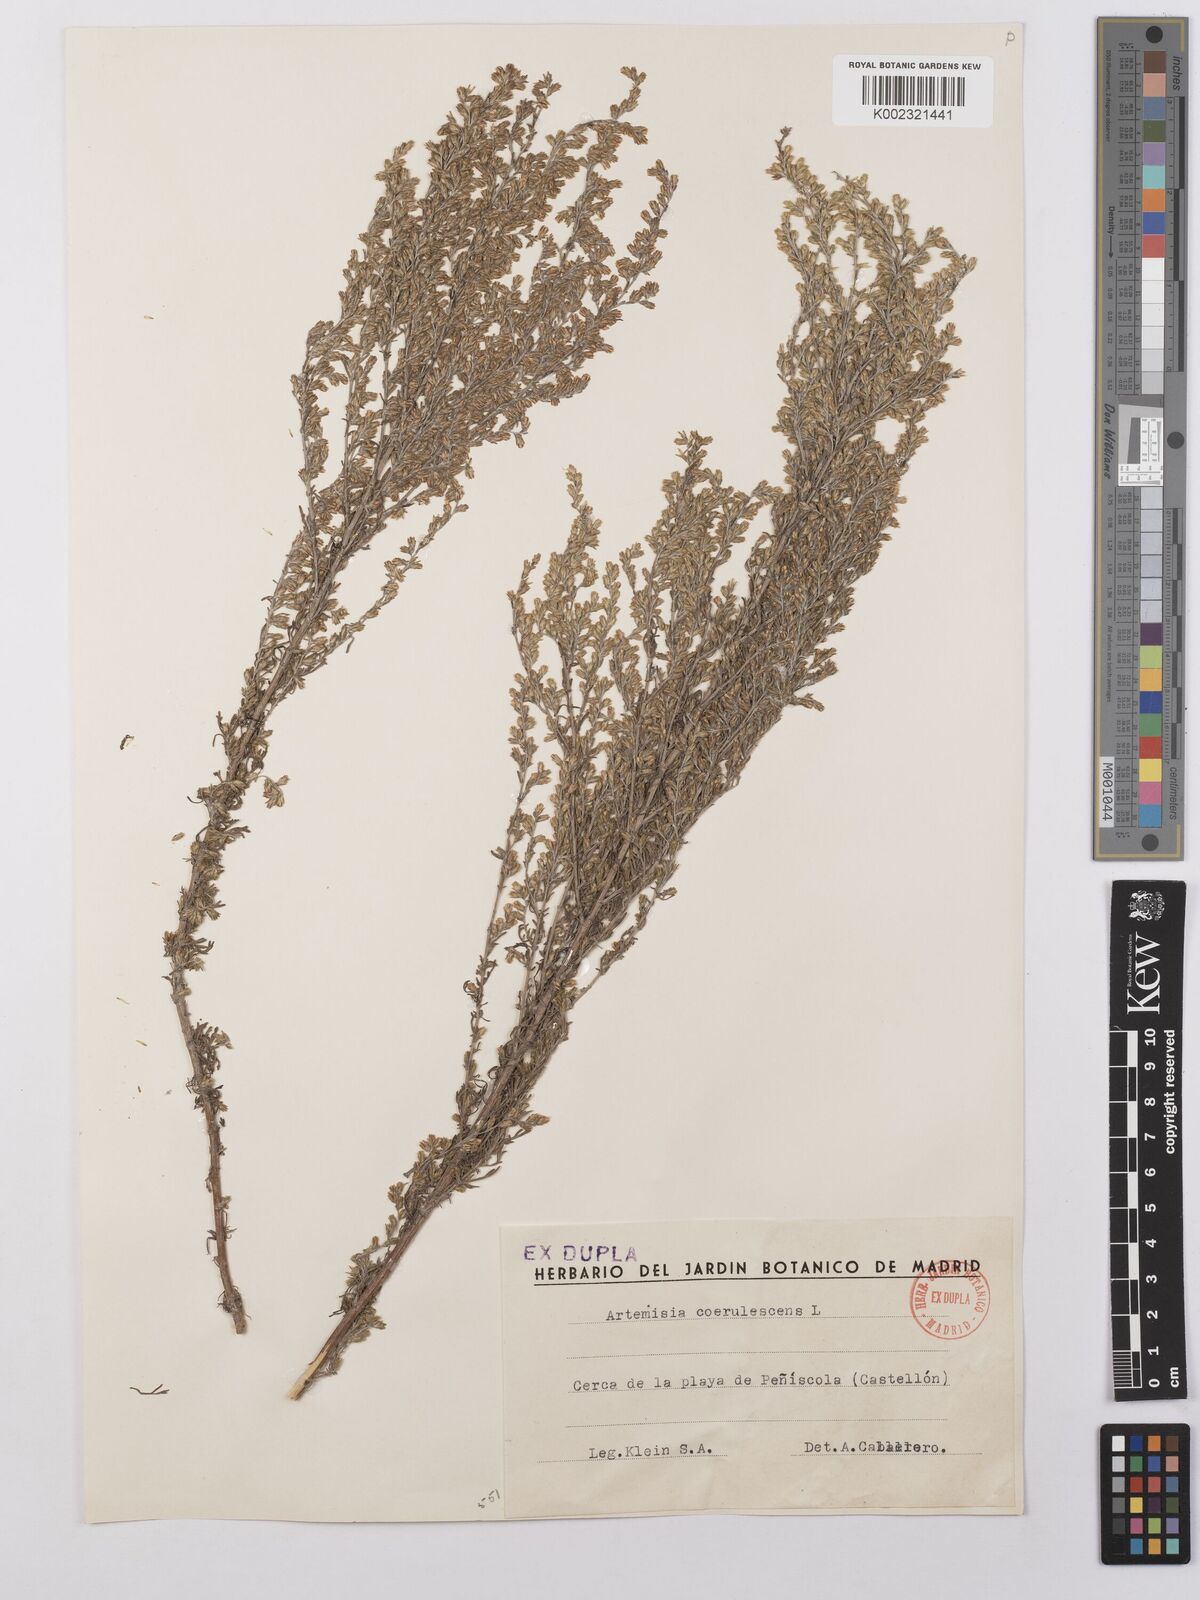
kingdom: Plantae
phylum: Tracheophyta
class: Magnoliopsida
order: Asterales
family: Asteraceae
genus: Artemisia
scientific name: Artemisia caerulescens
